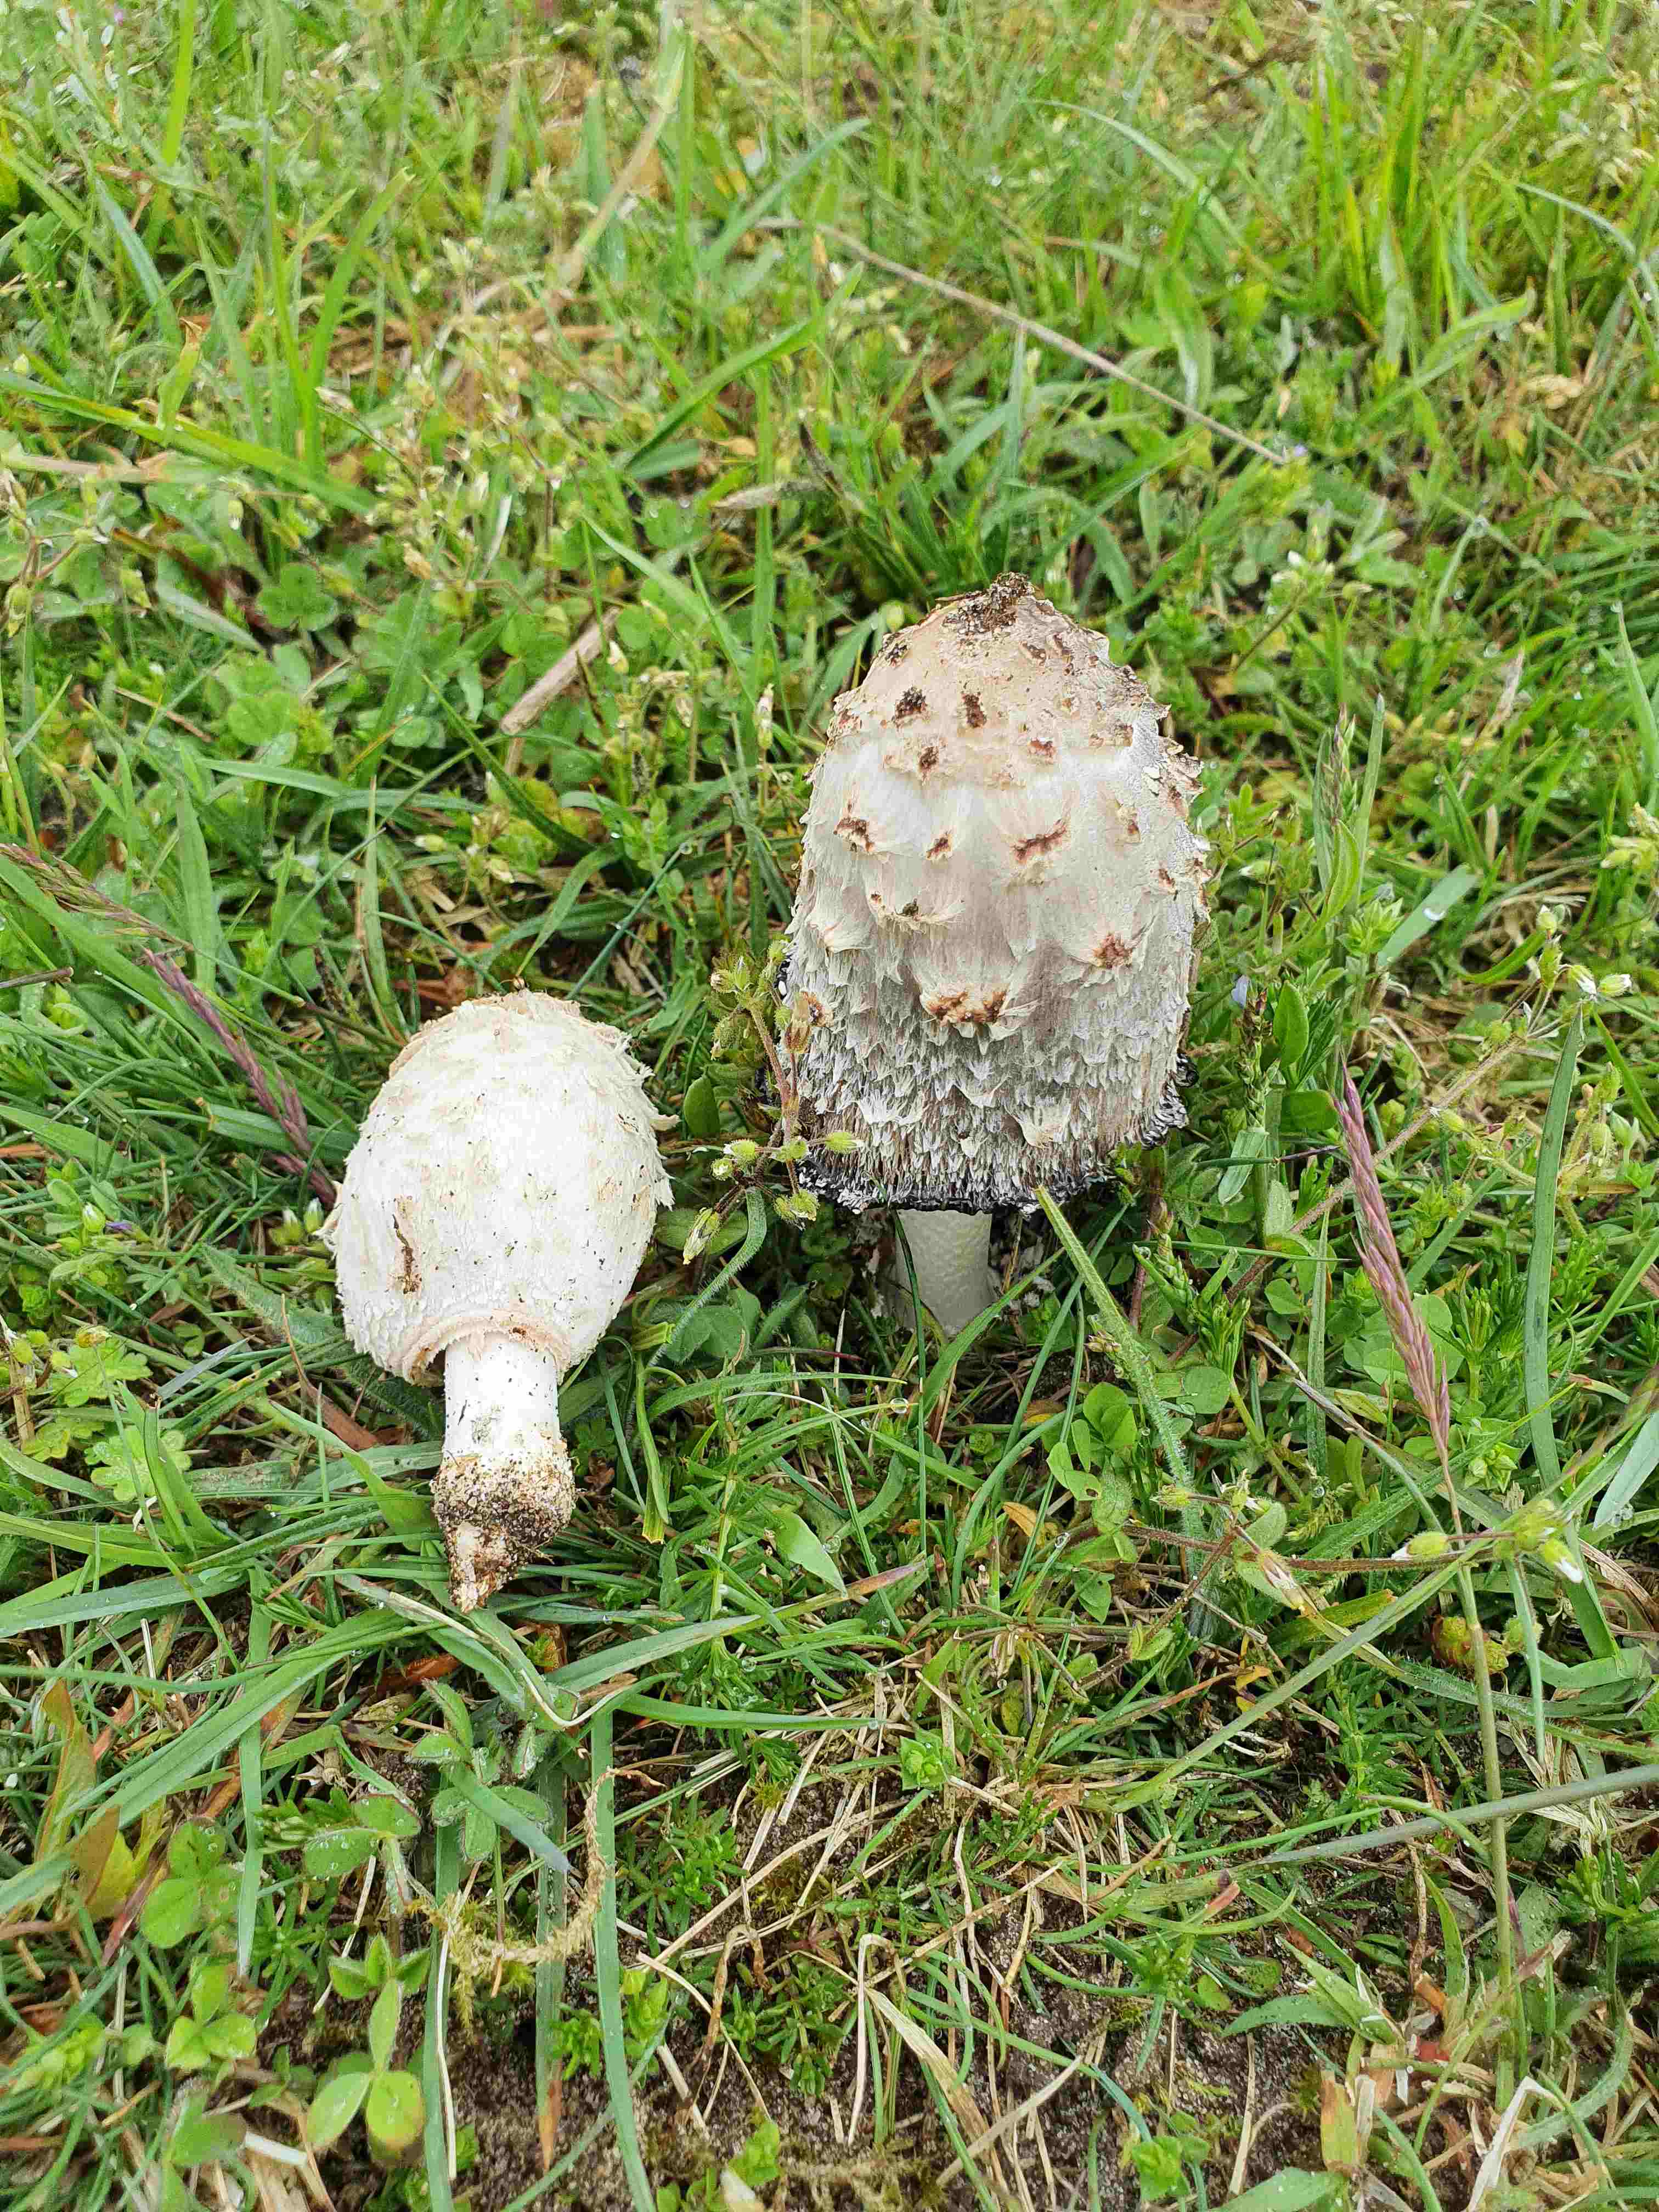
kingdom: Fungi
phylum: Basidiomycota
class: Agaricomycetes
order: Agaricales
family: Agaricaceae
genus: Coprinus
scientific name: Coprinus comatus
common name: stor parykhat
